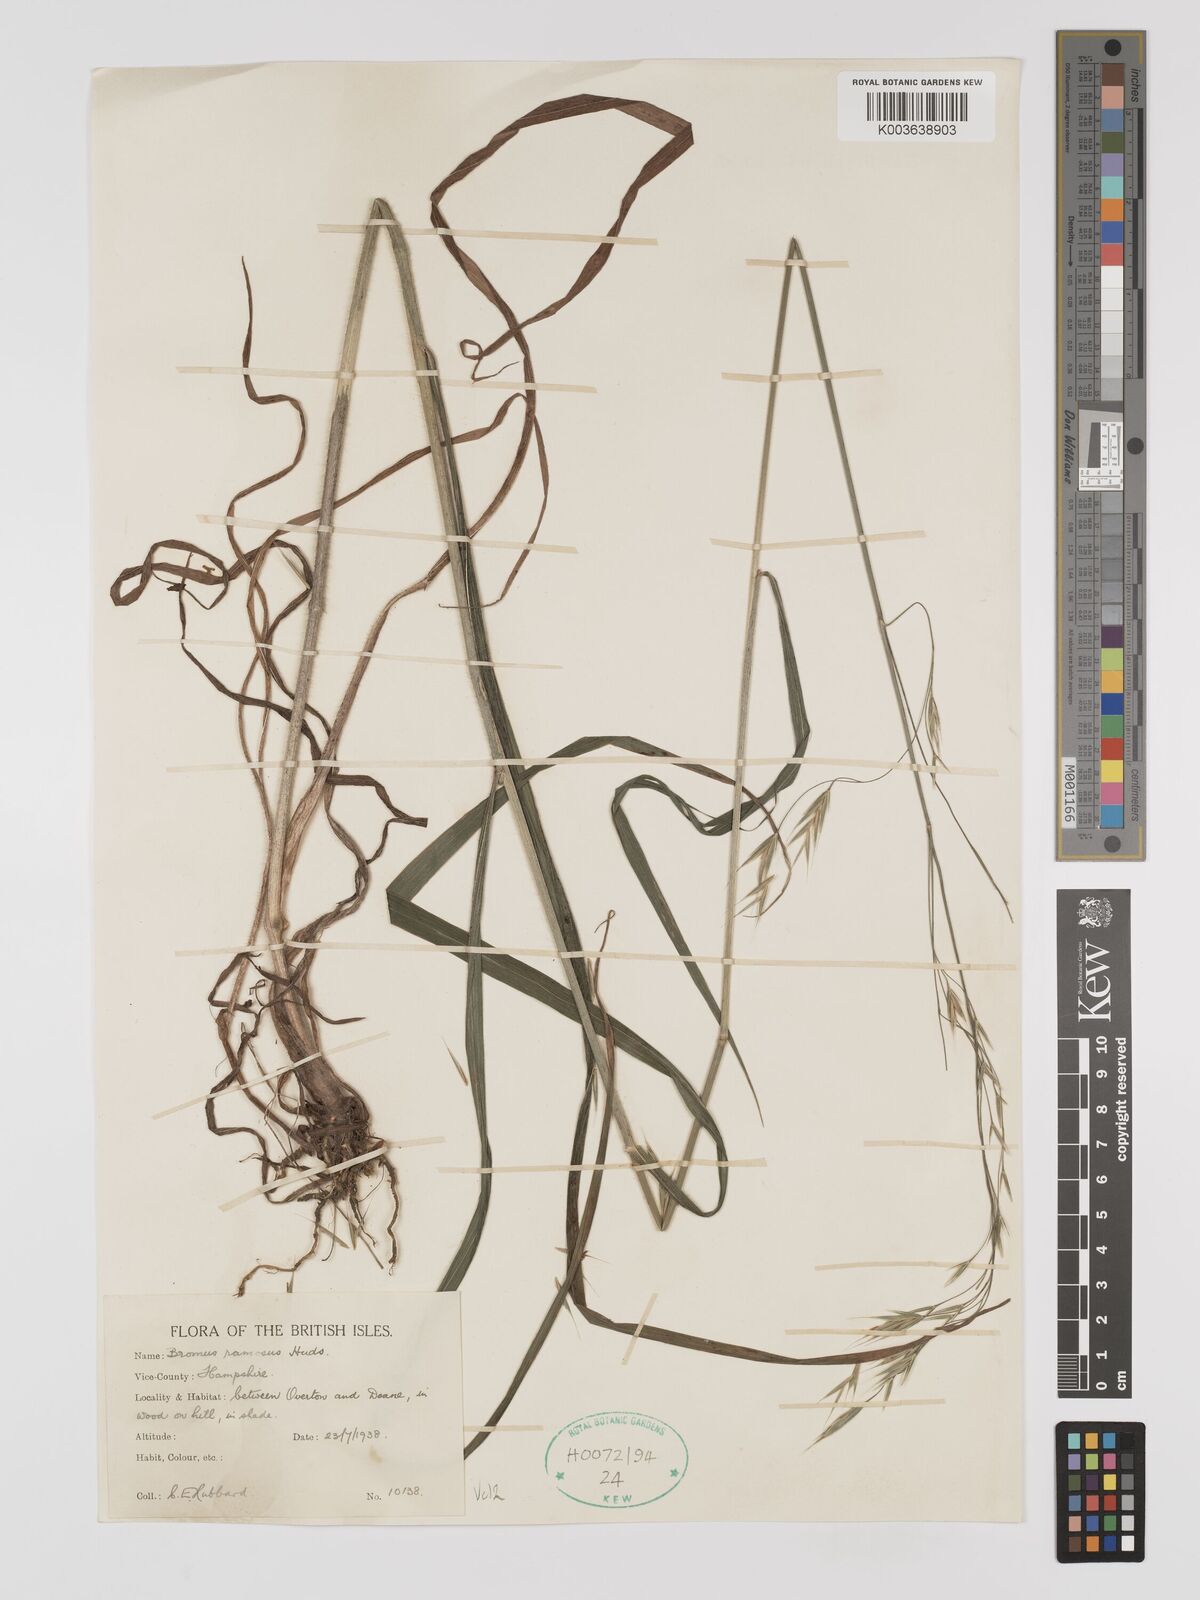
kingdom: Plantae
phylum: Tracheophyta
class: Liliopsida
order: Poales
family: Poaceae
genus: Bromus
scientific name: Bromus ramosus
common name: Hairy brome
